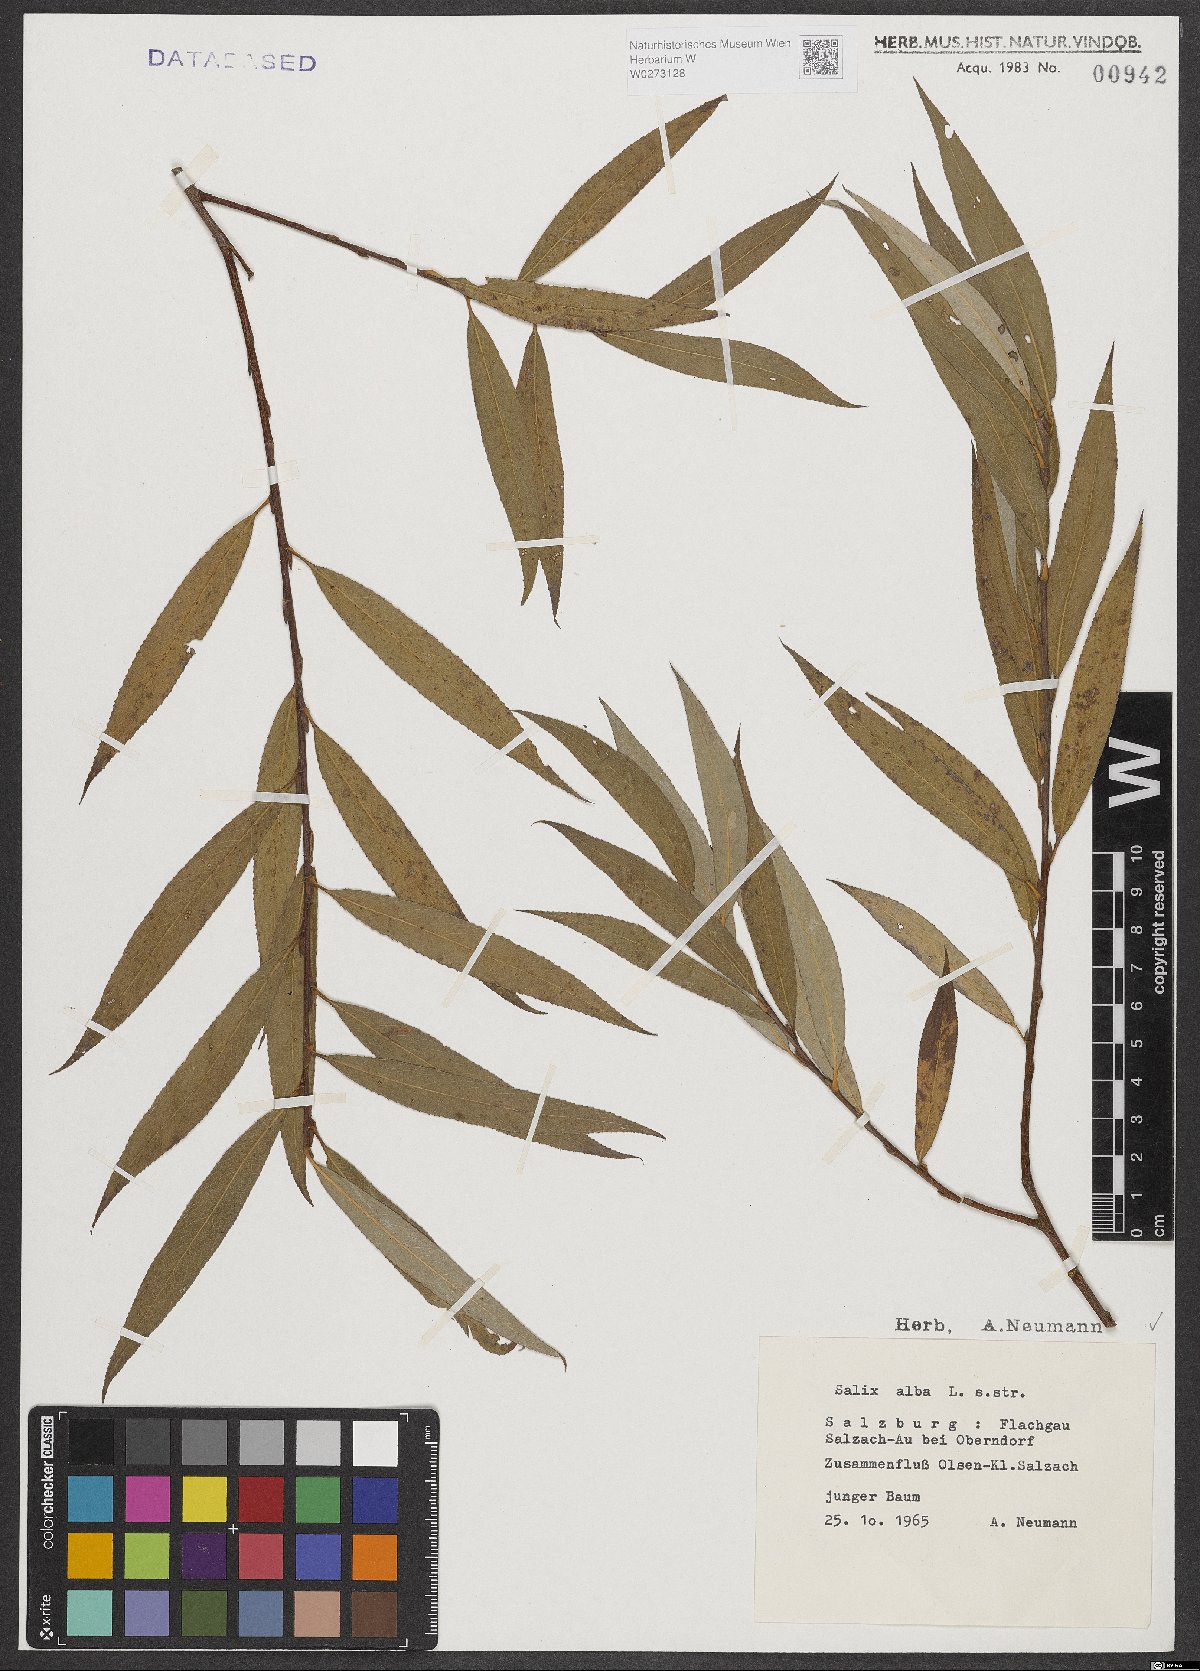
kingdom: Plantae
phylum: Tracheophyta
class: Magnoliopsida
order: Malpighiales
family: Salicaceae
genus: Salix
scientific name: Salix alba
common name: White willow
